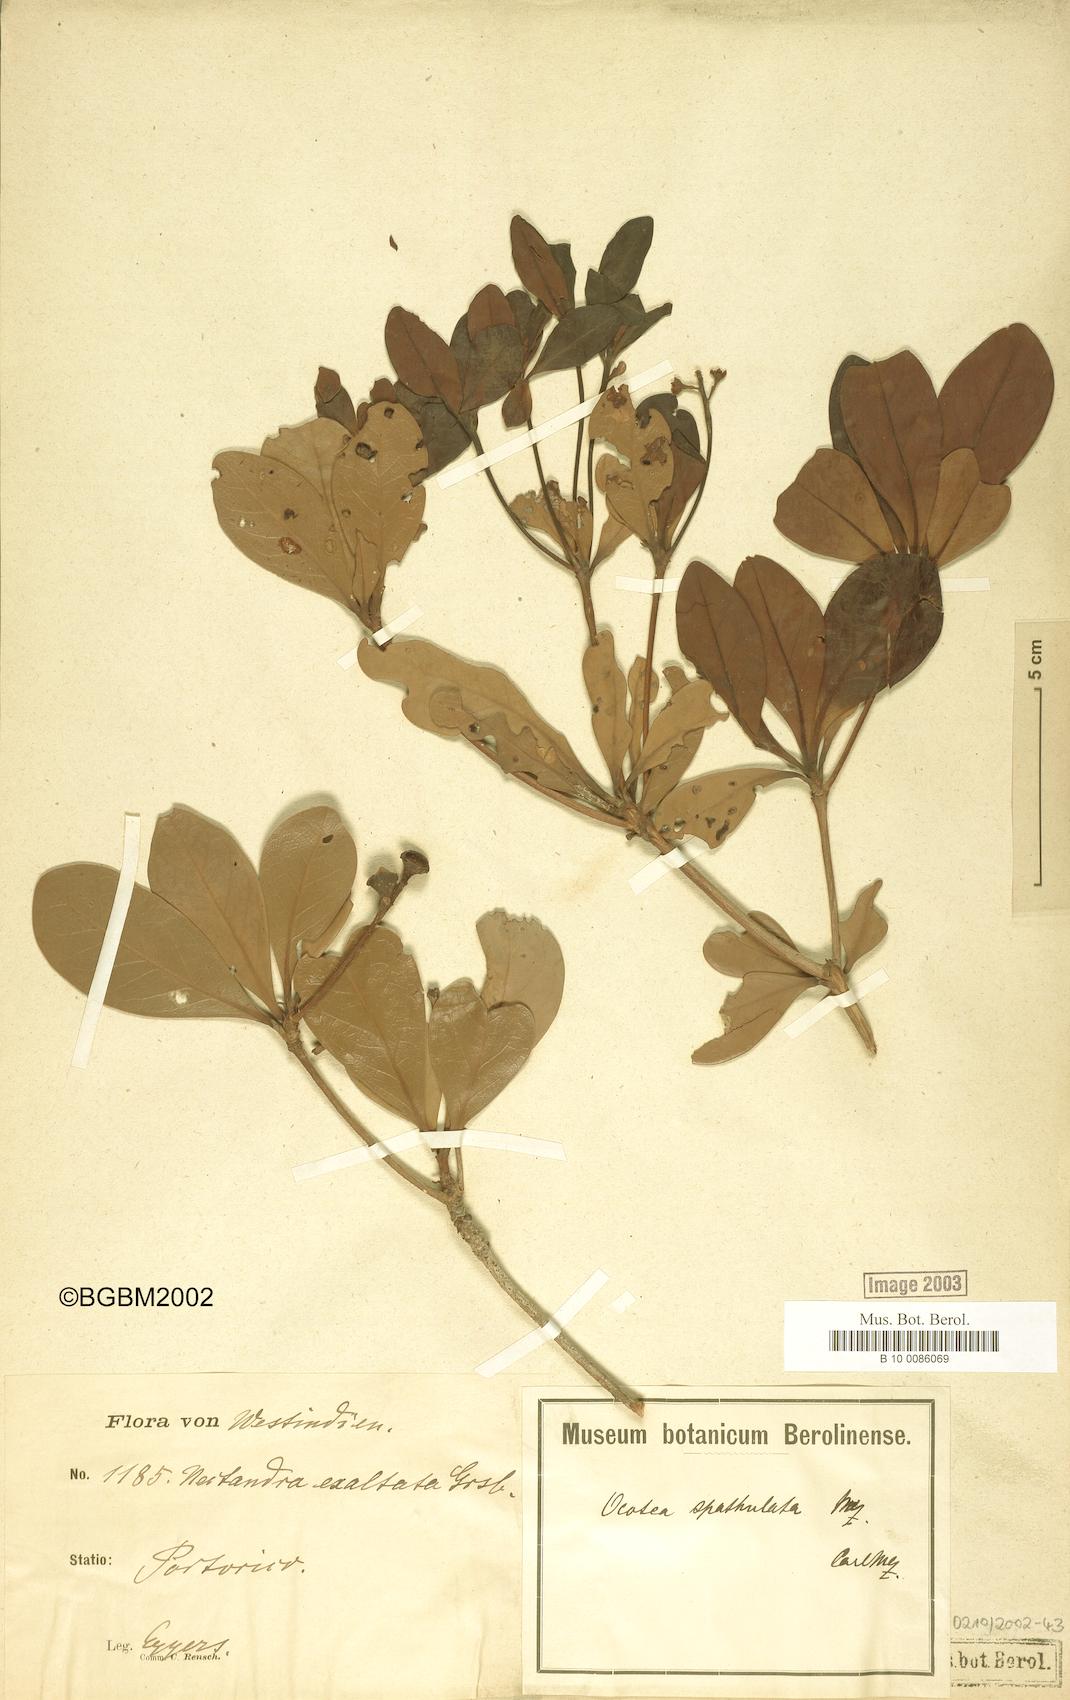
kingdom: Plantae
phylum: Tracheophyta
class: Magnoliopsida
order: Laurales
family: Lauraceae
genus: Ocotea
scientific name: Ocotea spathulata
